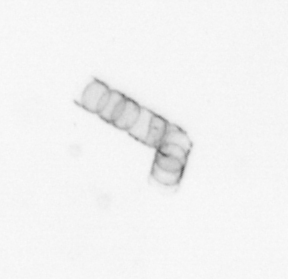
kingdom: Chromista
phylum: Ochrophyta
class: Bacillariophyceae
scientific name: Bacillariophyceae
